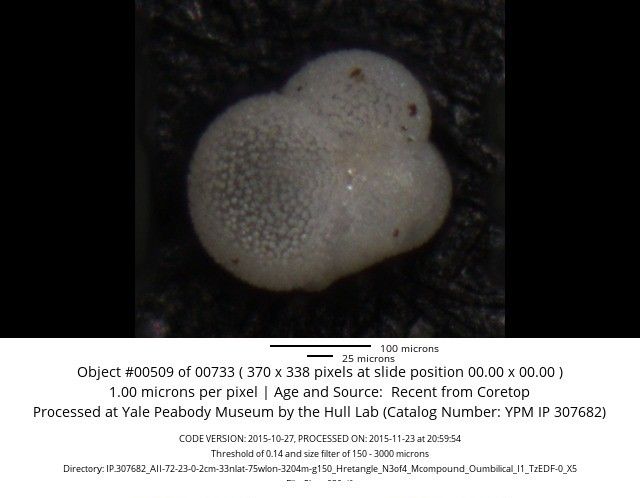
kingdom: Chromista
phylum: Foraminifera
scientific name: Foraminifera
